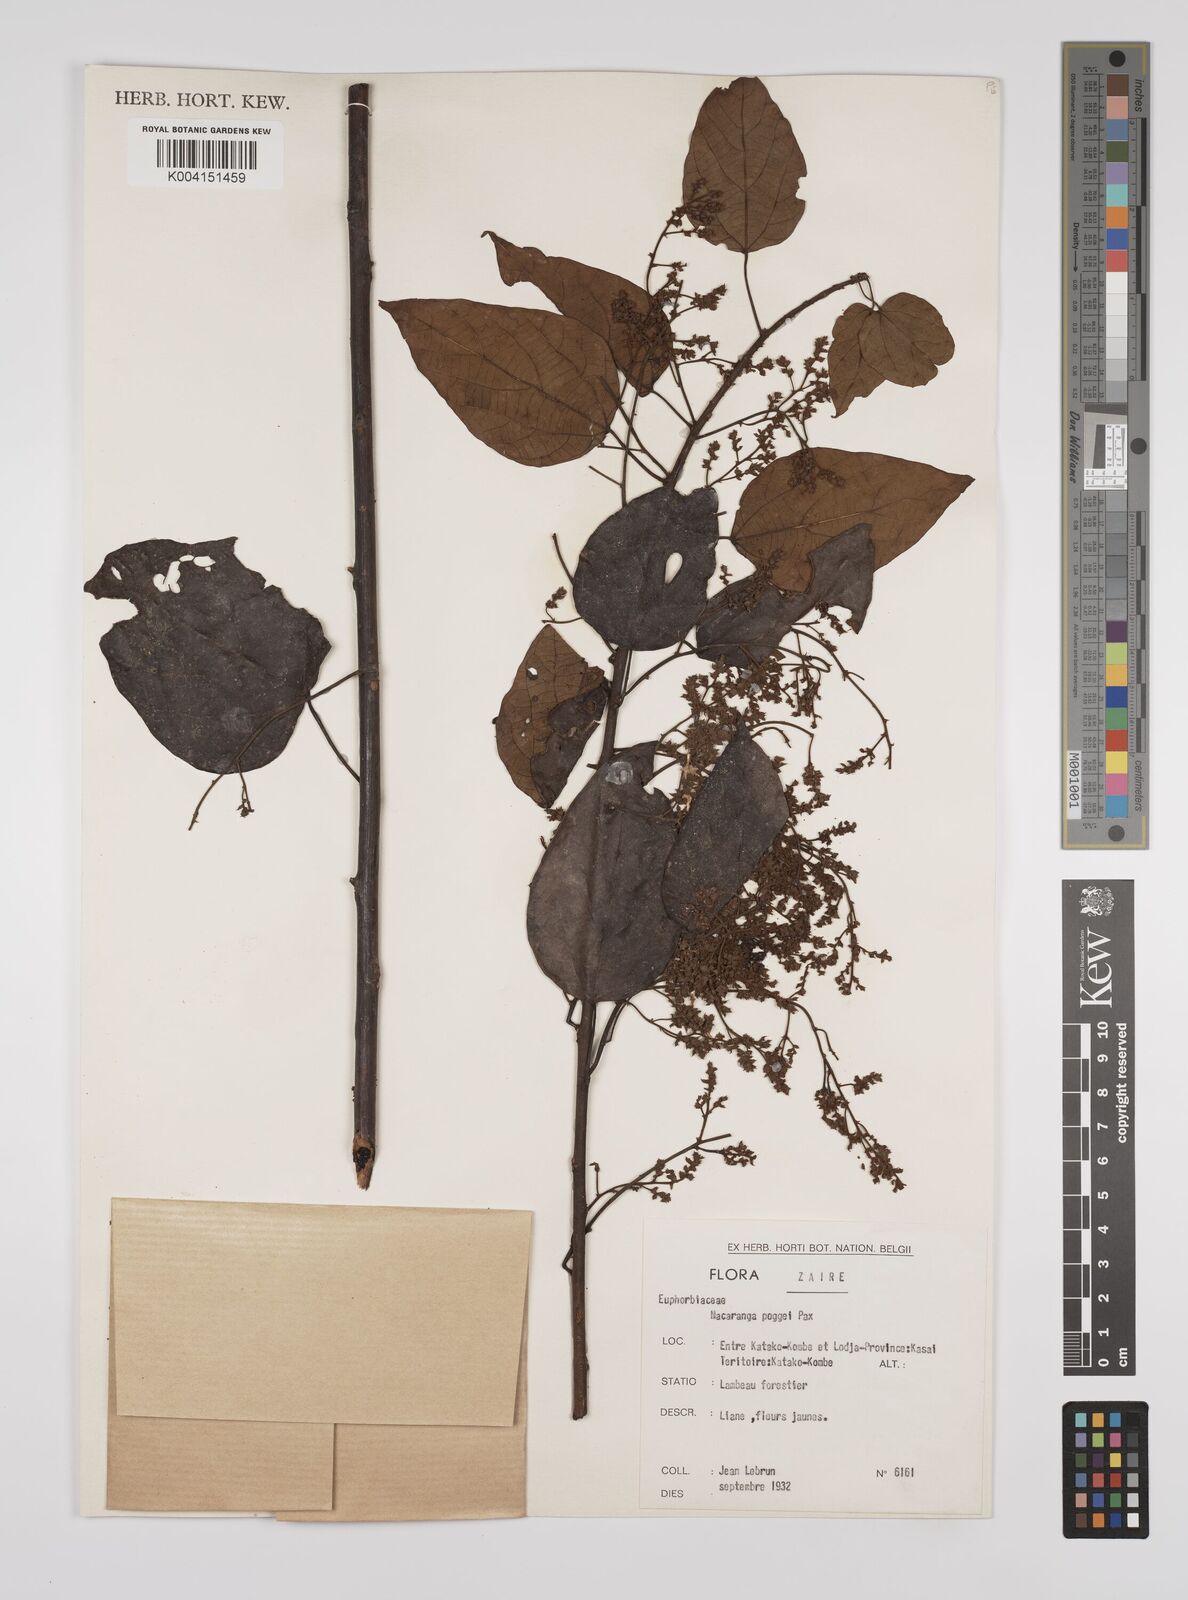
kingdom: Plantae
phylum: Tracheophyta
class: Magnoliopsida
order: Malpighiales
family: Euphorbiaceae
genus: Macaranga
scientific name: Macaranga poggei
